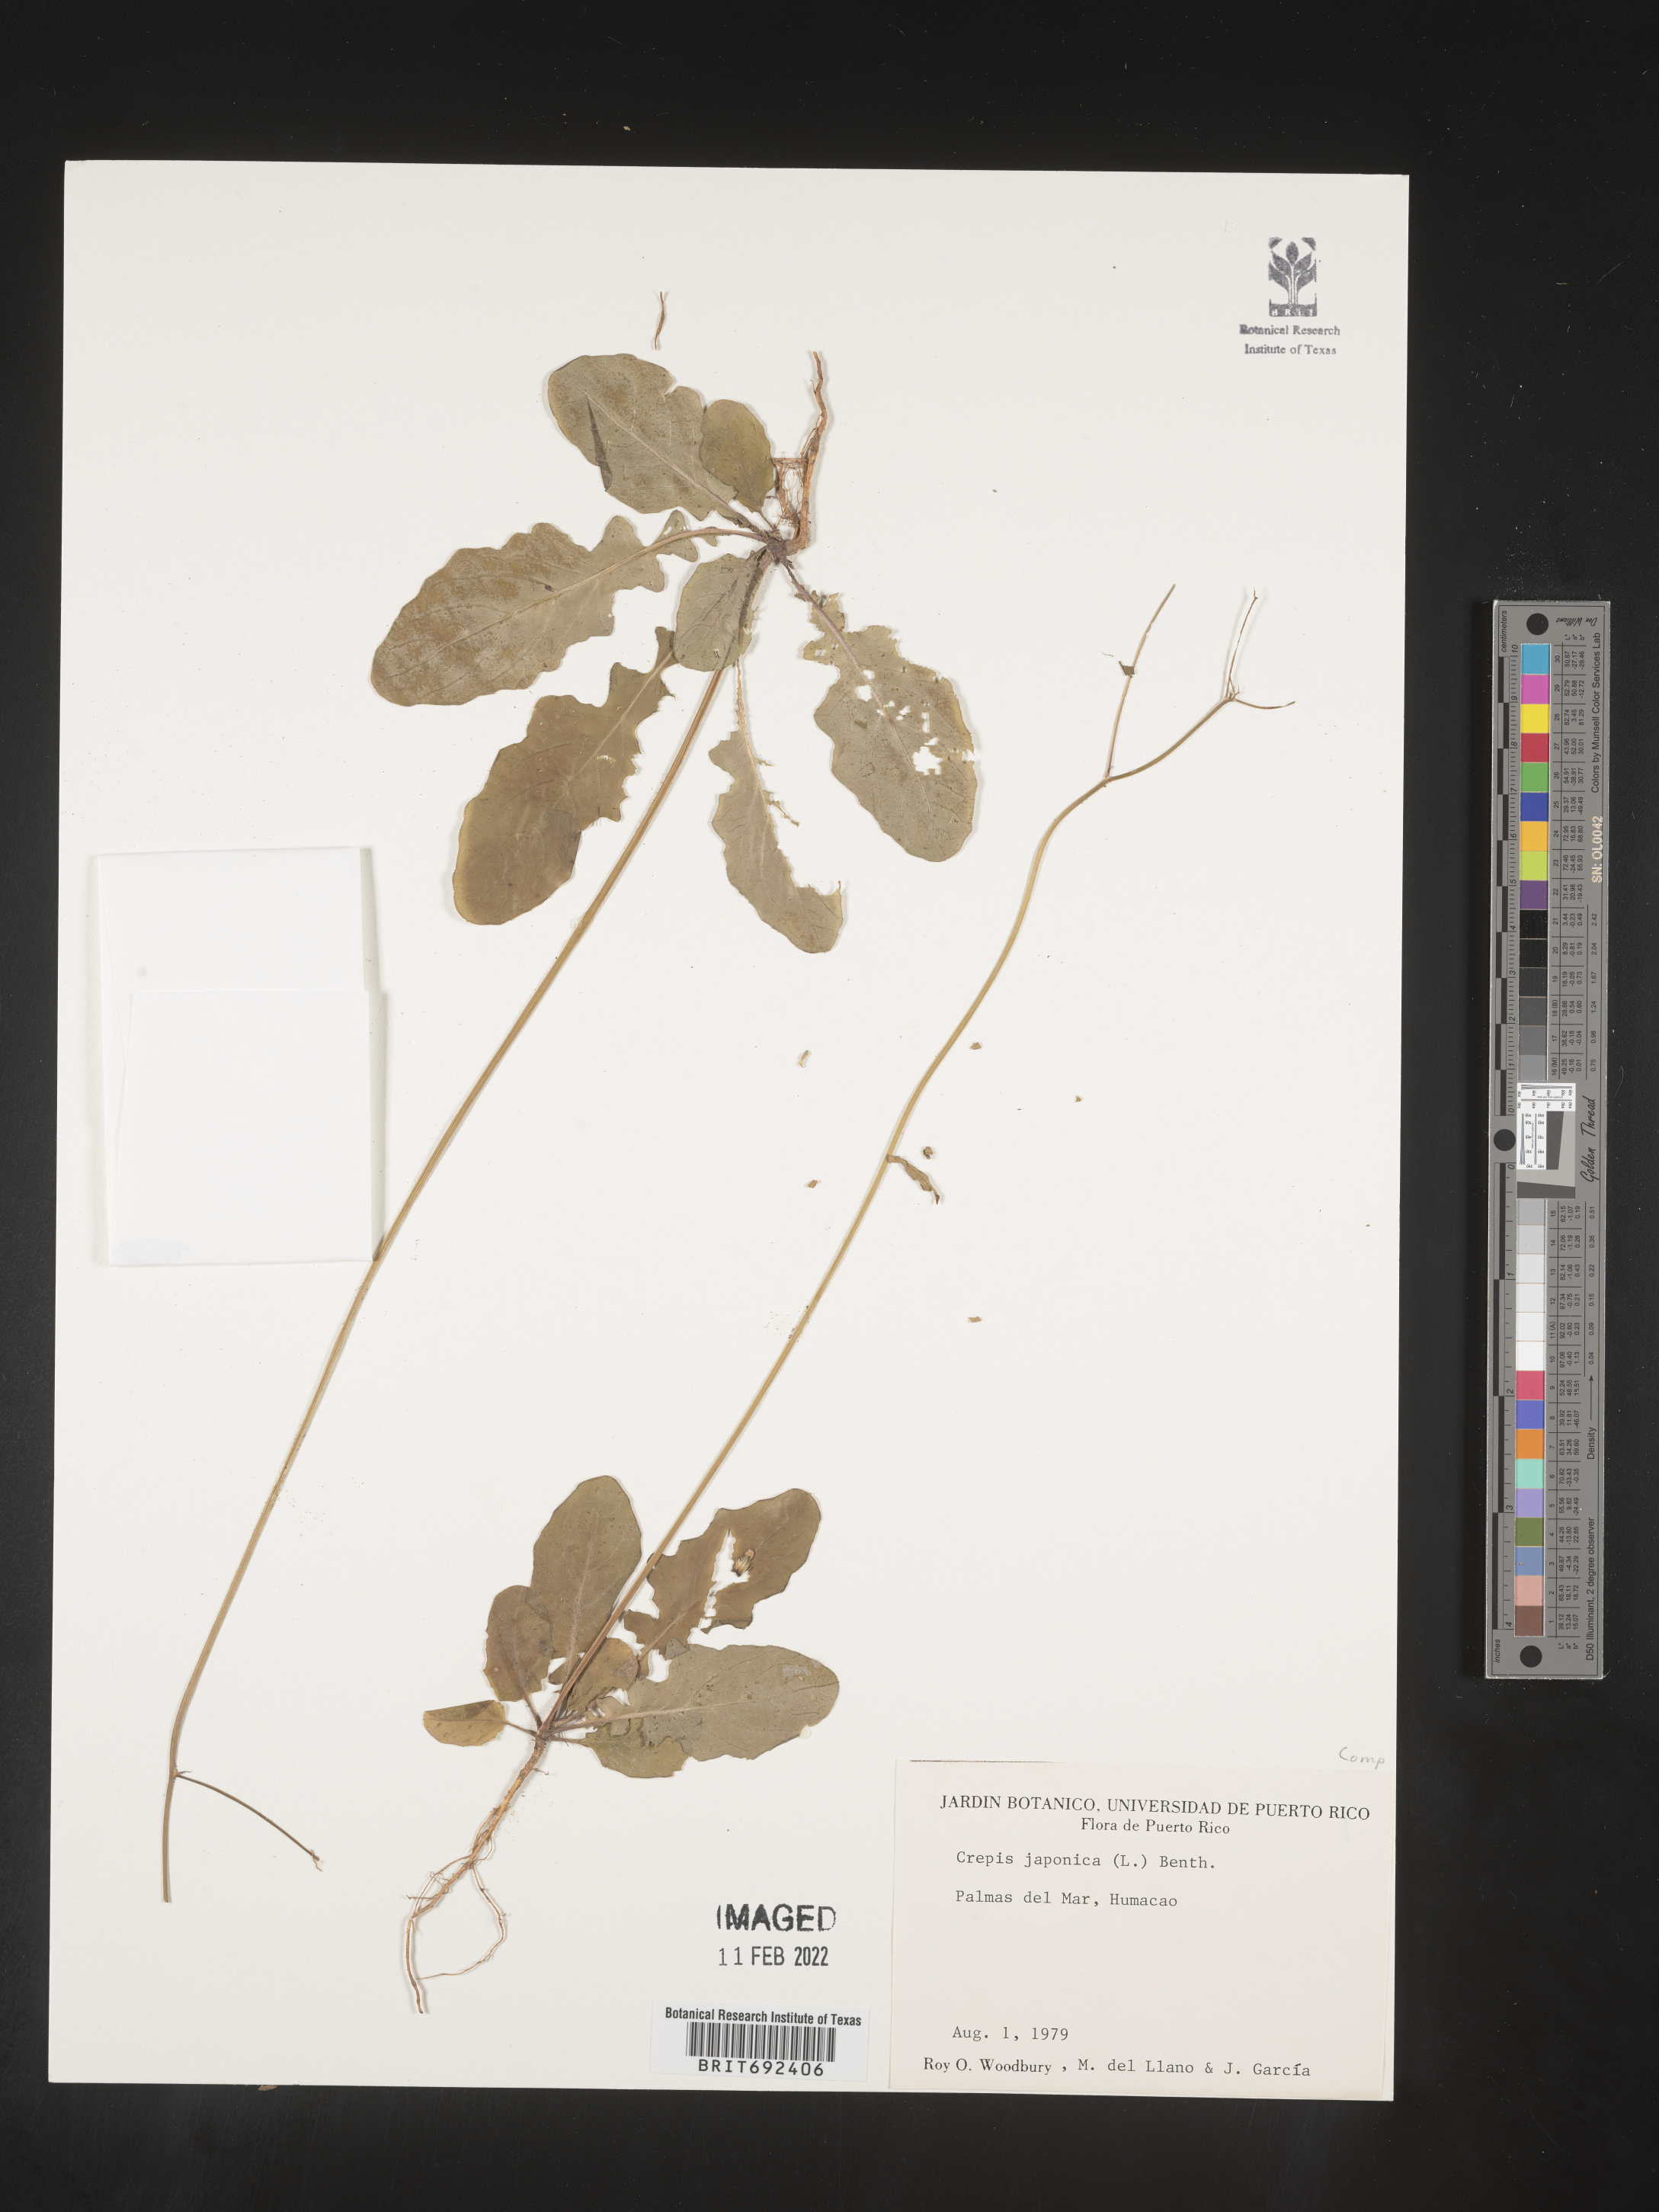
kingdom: Plantae
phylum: Tracheophyta
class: Magnoliopsida
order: Asterales
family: Asteraceae
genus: Crepis
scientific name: Crepis
